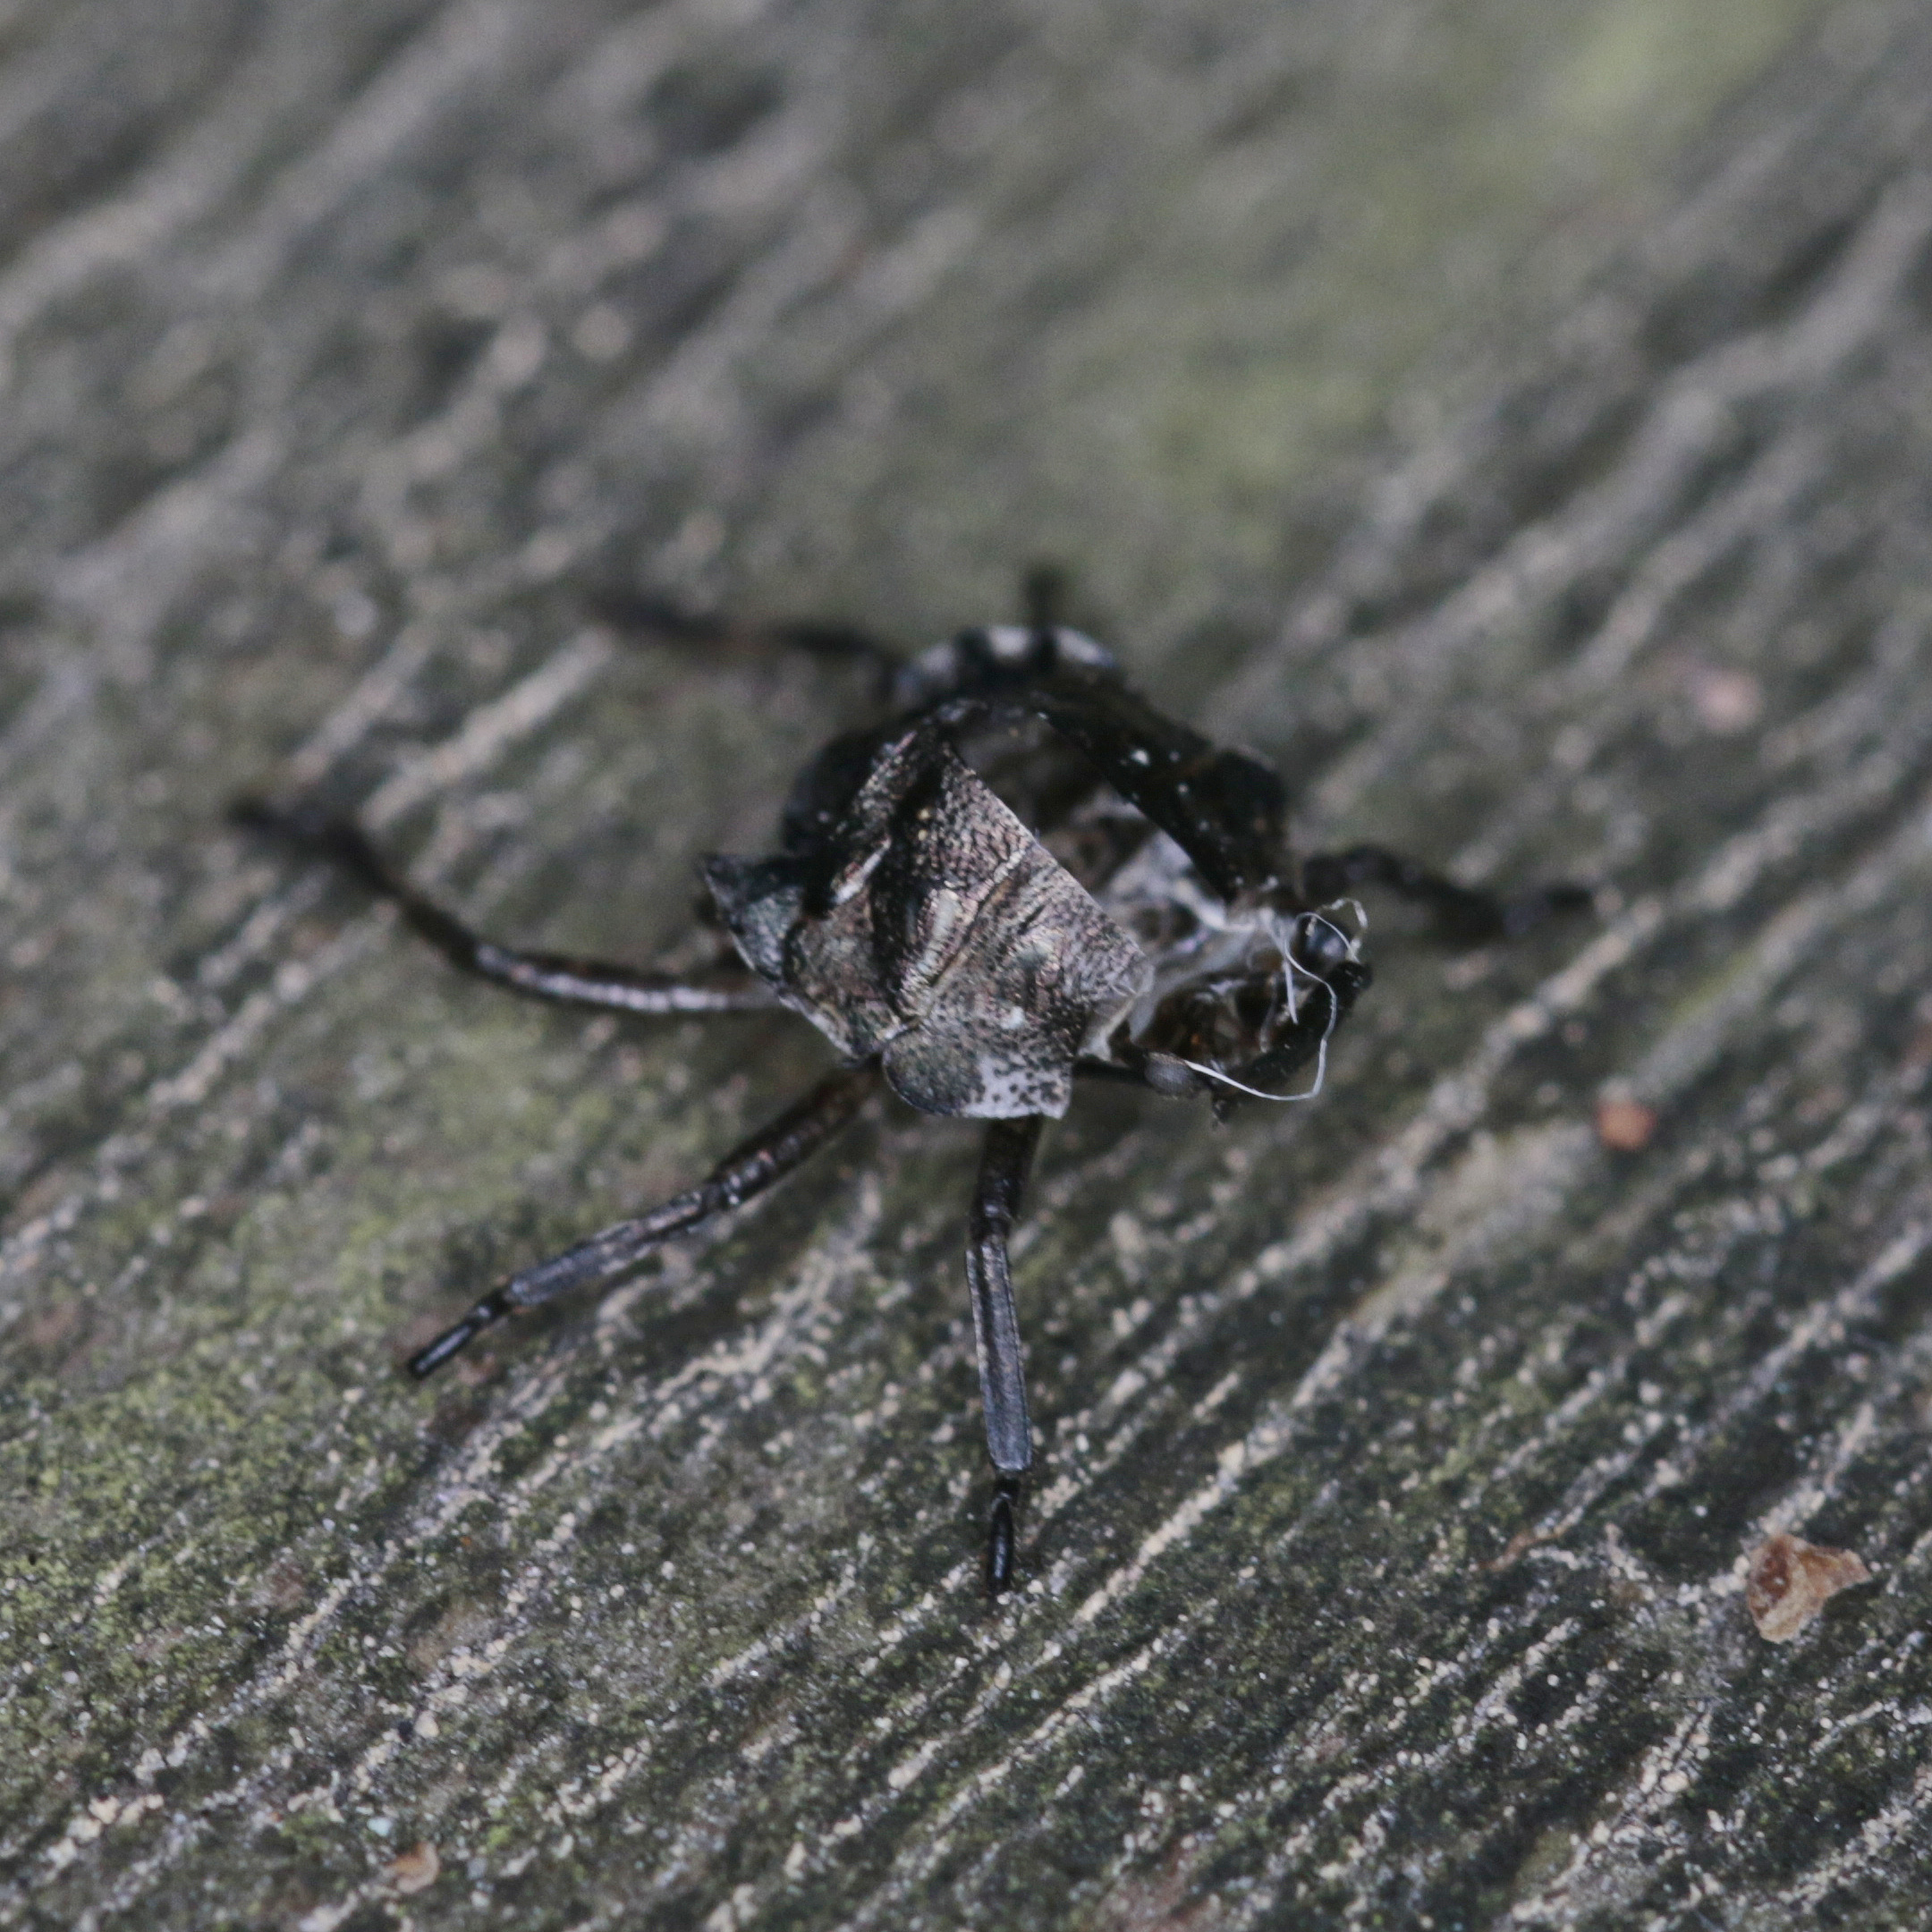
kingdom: Animalia
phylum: Arthropoda
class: Insecta
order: Hemiptera
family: Pentatomidae
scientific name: Pentatomidae
